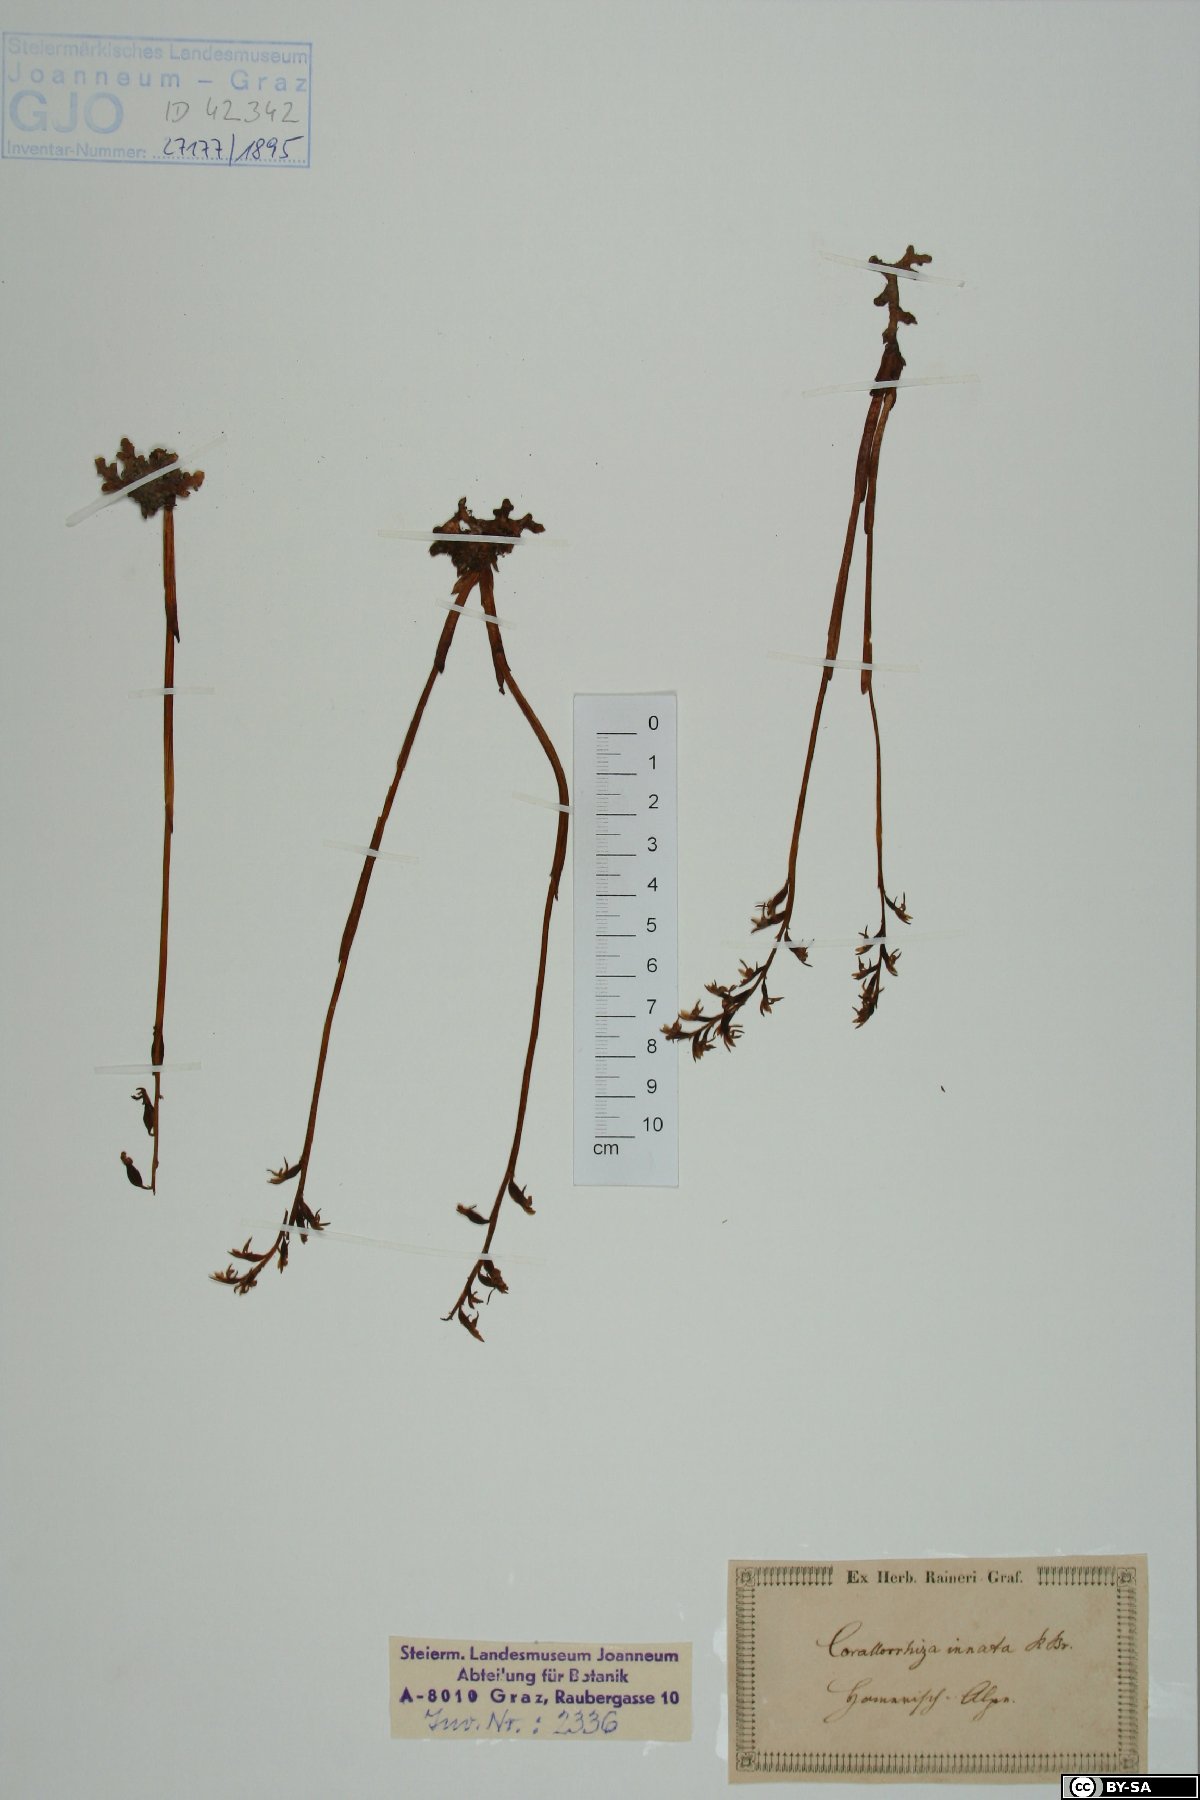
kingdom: Plantae
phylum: Tracheophyta
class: Liliopsida
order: Asparagales
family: Orchidaceae
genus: Corallorhiza
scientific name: Corallorhiza trifida
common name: Yellow coralroot
